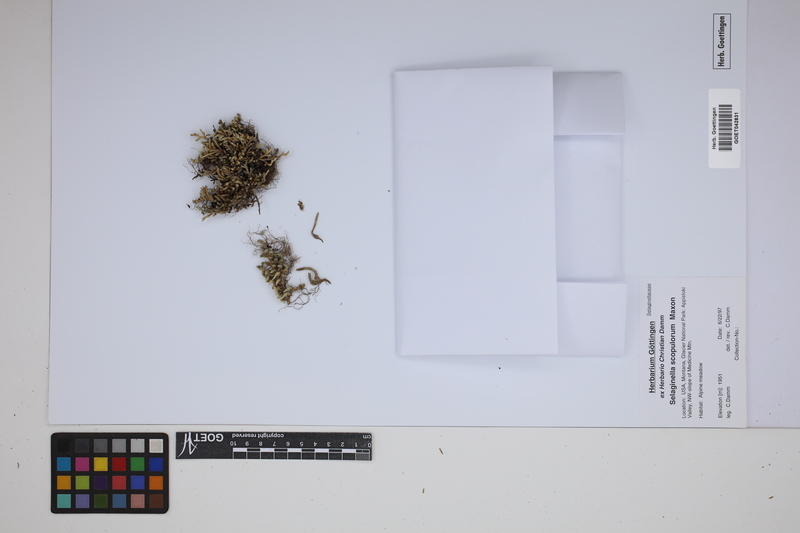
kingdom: Plantae
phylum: Tracheophyta
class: Lycopodiopsida
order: Selaginellales
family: Selaginellaceae
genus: Selaginella
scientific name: Selaginella densa
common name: Mountain spike-moss
